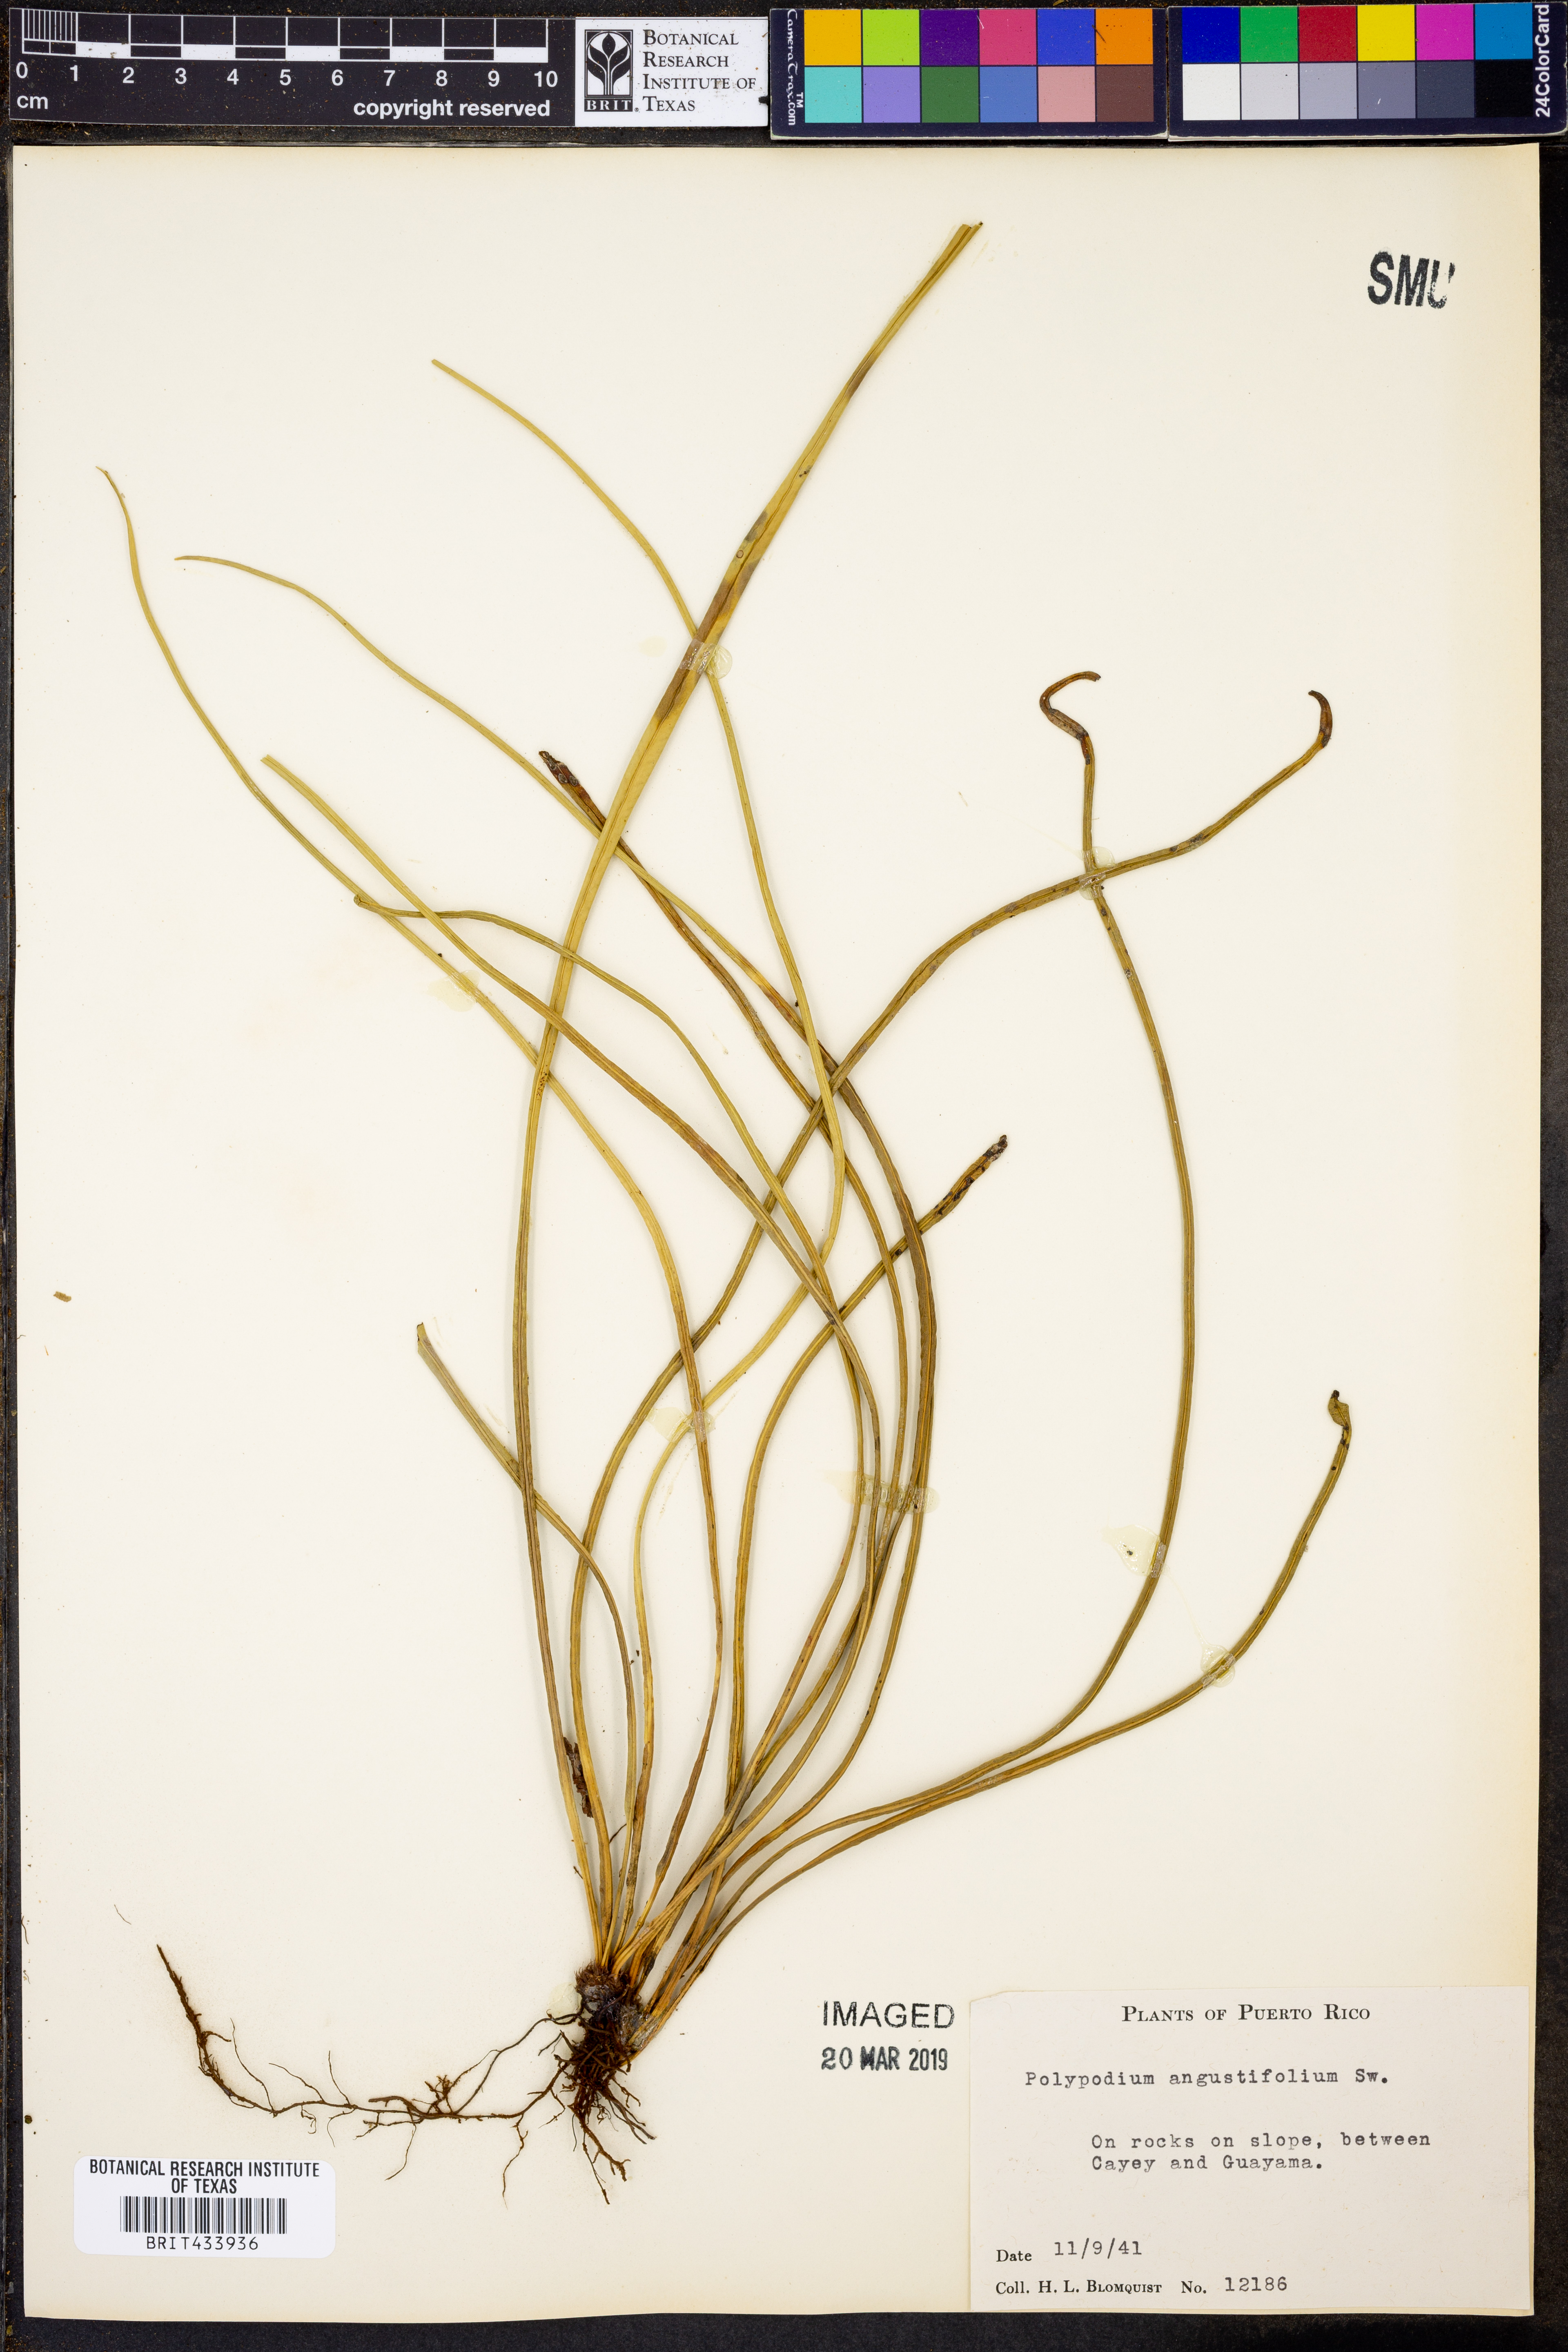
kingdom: Plantae
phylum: Tracheophyta
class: Polypodiopsida
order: Polypodiales
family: Polypodiaceae
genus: Campyloneurum
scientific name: Campyloneurum angustifolium
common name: Narrow-leaf strap fern
